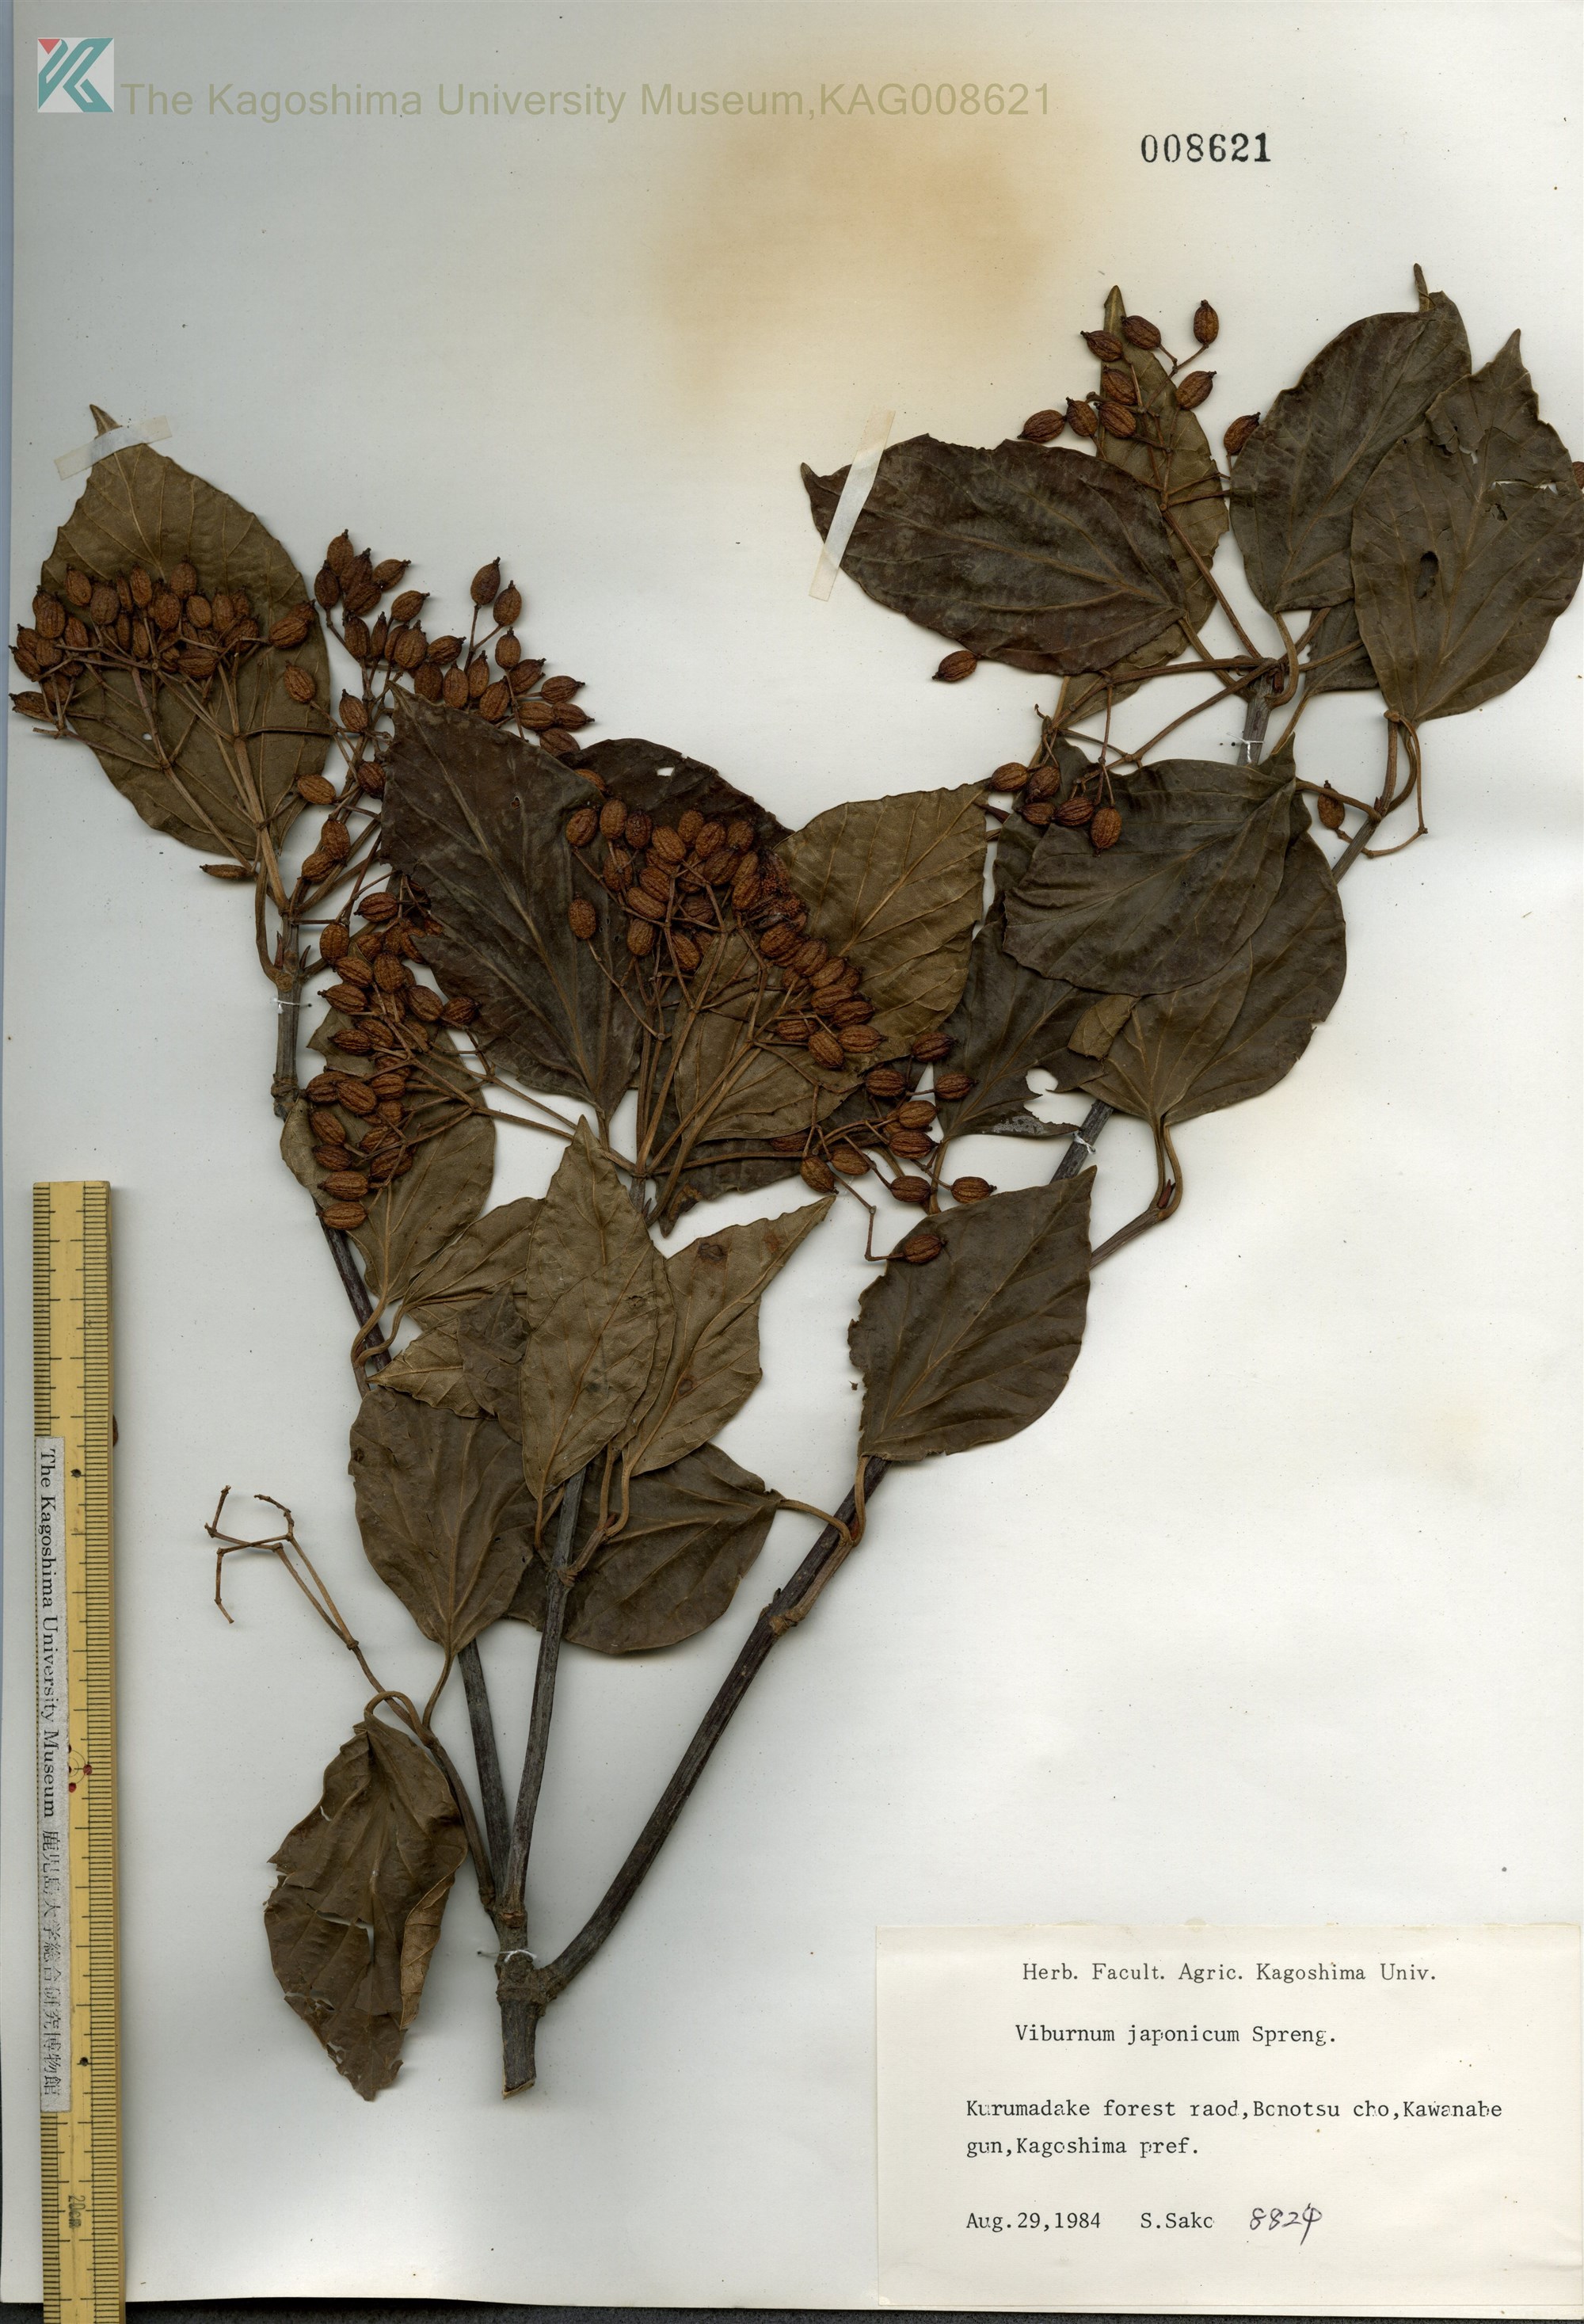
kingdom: Plantae
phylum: Tracheophyta
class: Magnoliopsida
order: Dipsacales
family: Viburnaceae
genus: Viburnum
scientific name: Viburnum japonicum
